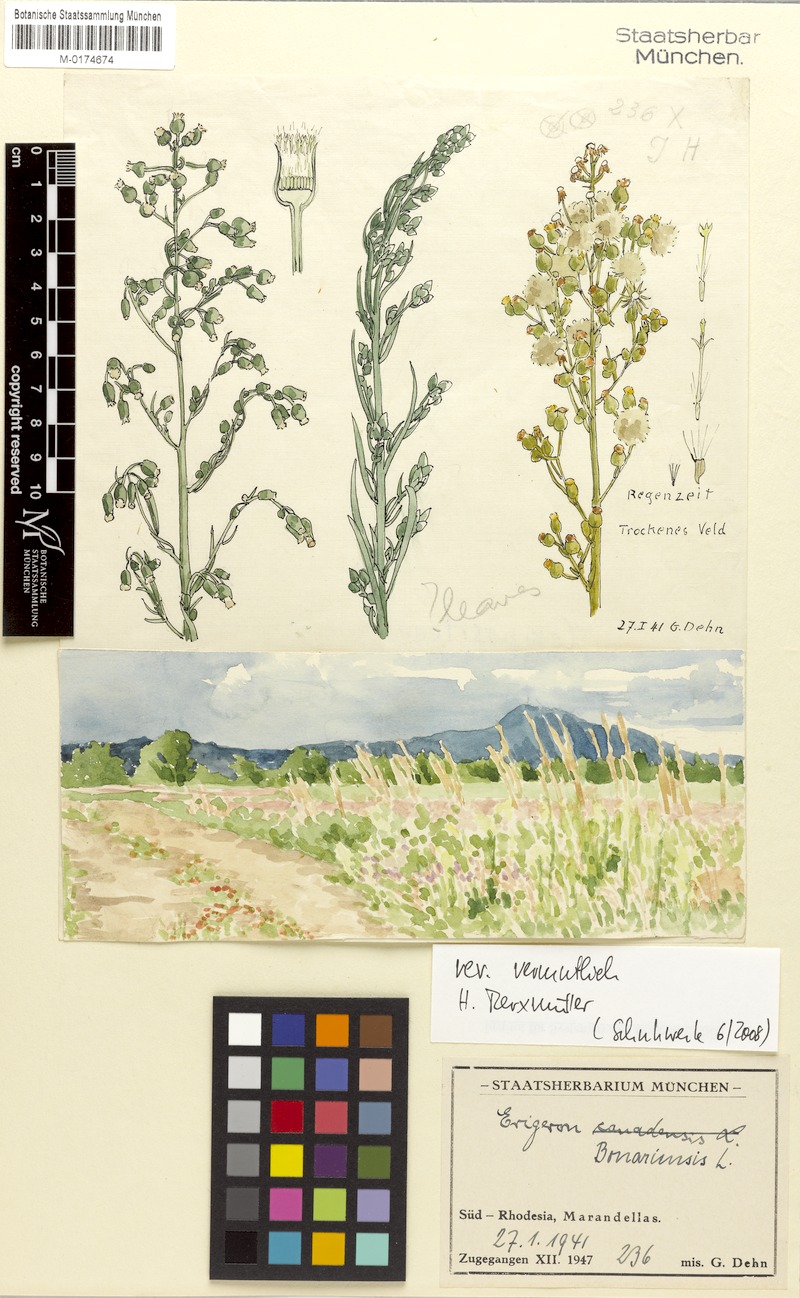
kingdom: Plantae
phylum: Tracheophyta
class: Magnoliopsida
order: Asterales
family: Asteraceae
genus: Erigeron
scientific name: Erigeron bonariensis
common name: Argentine fleabane
